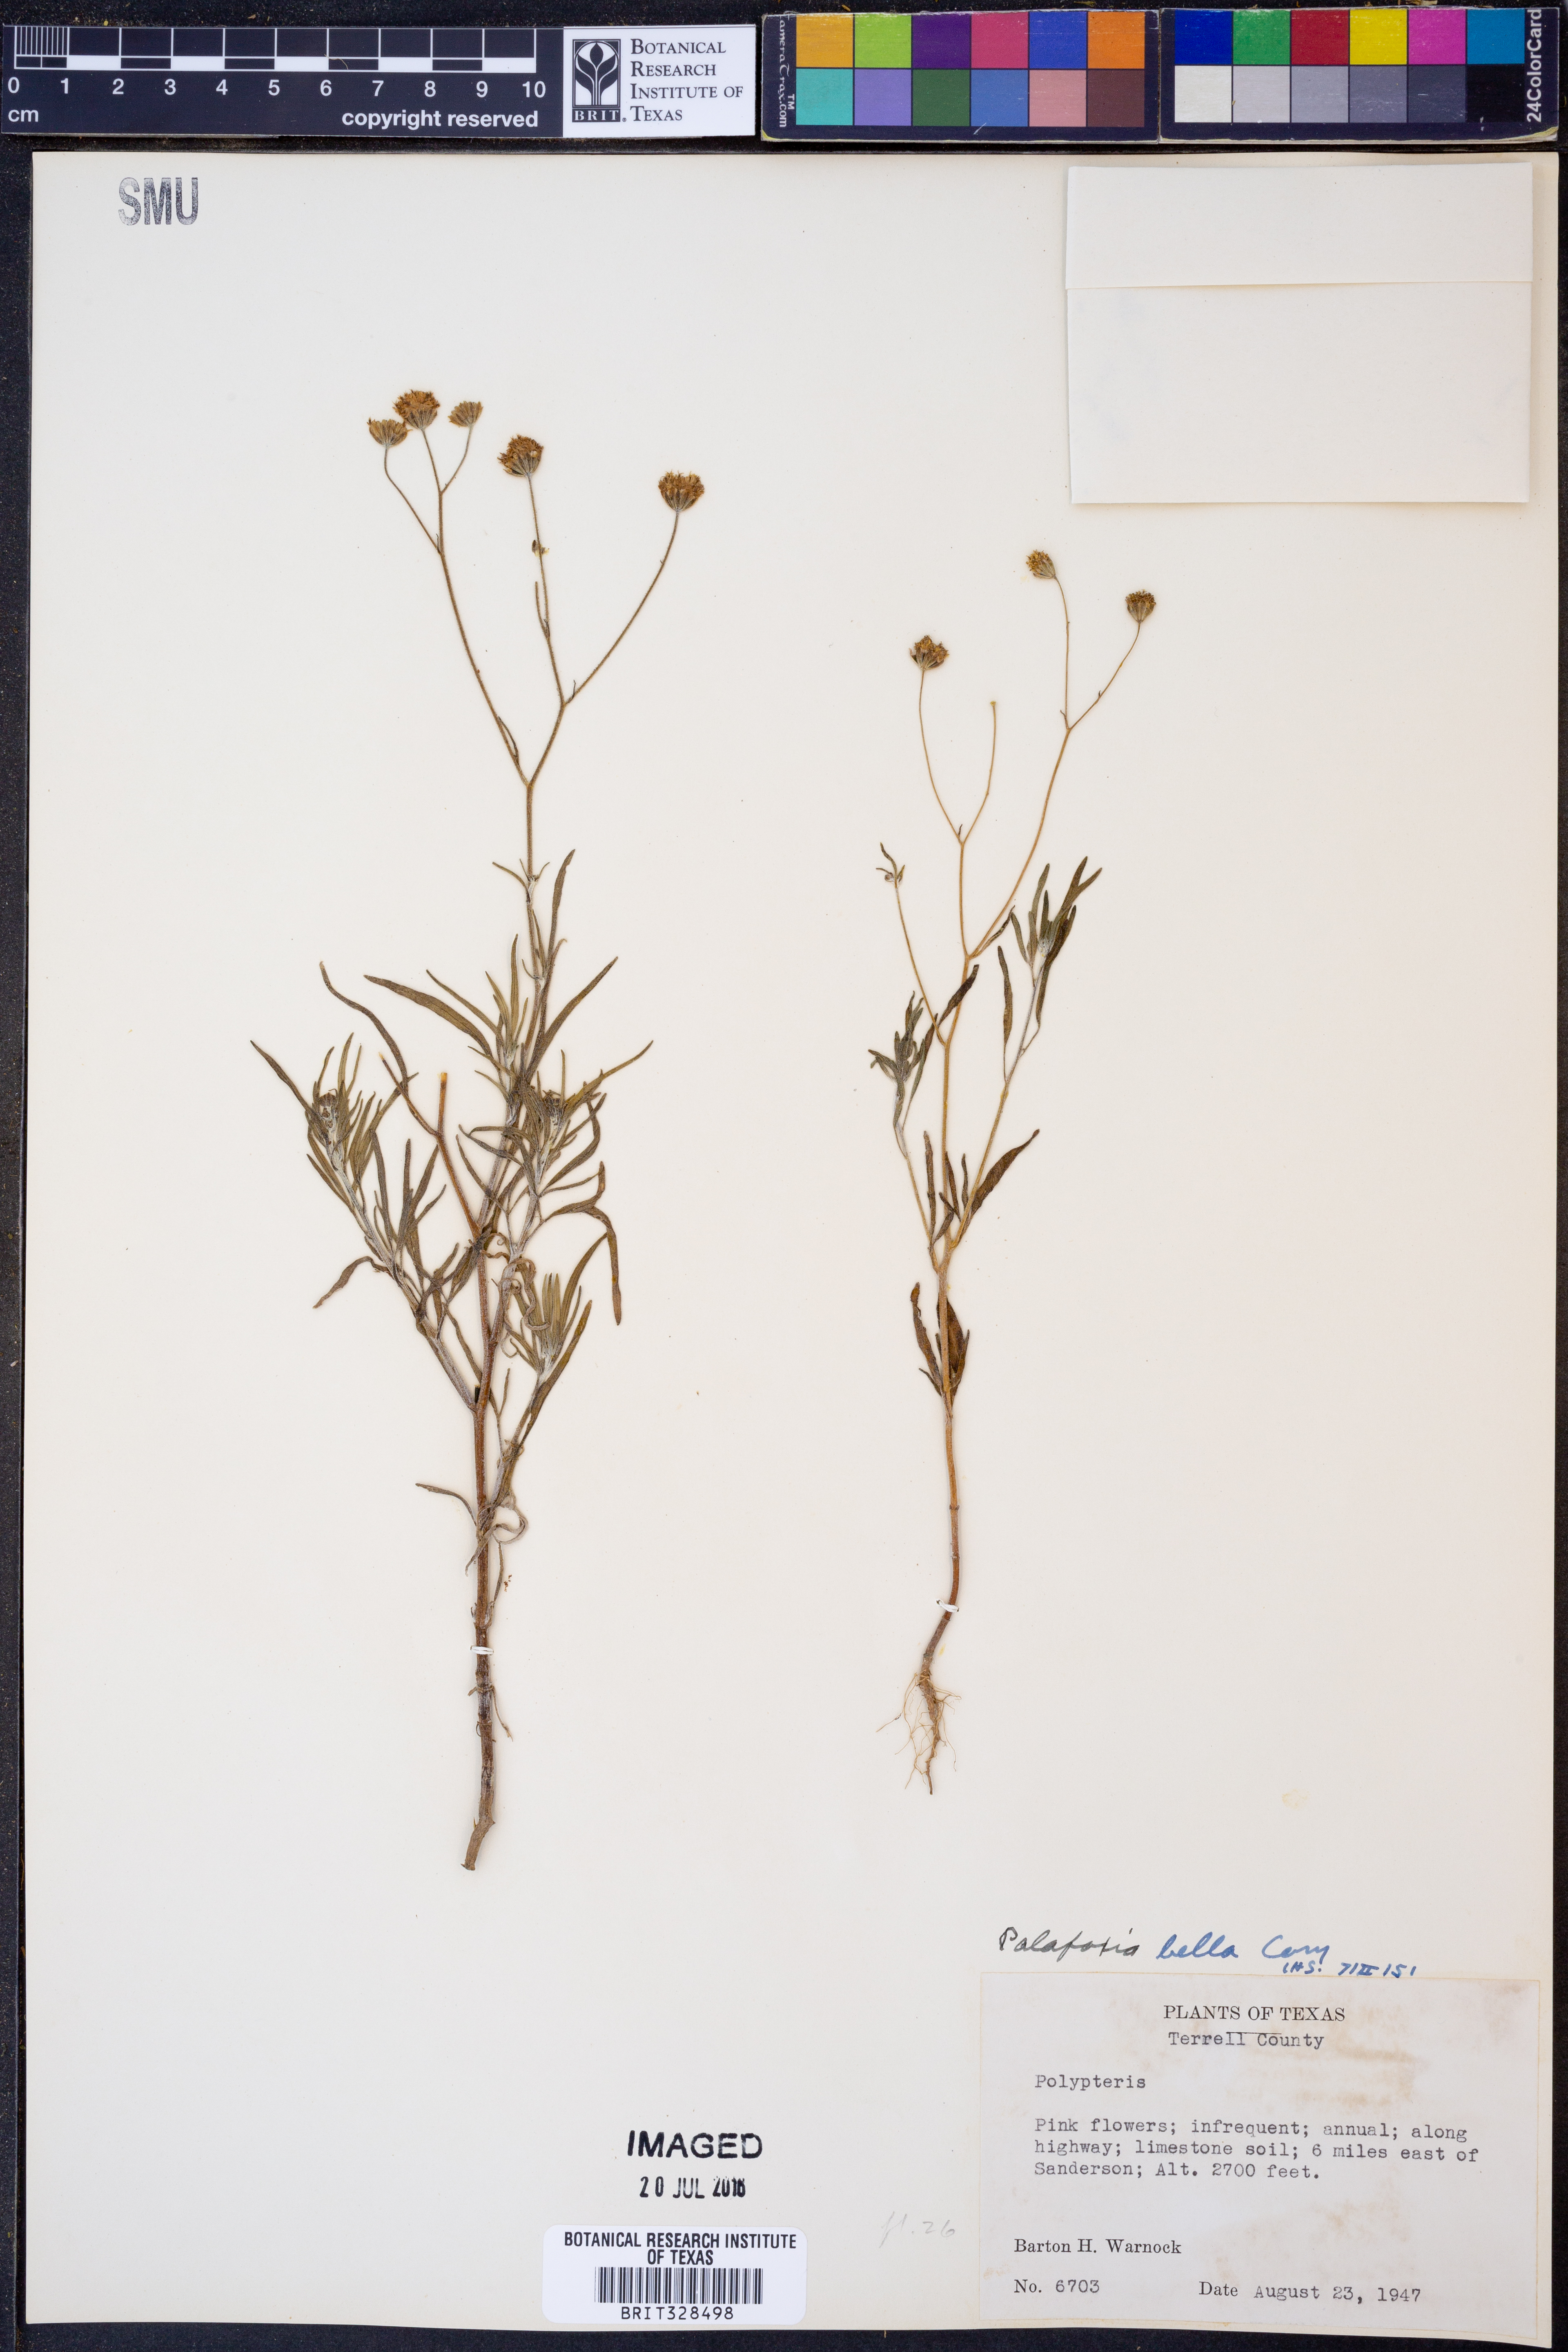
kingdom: Plantae
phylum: Tracheophyta
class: Magnoliopsida
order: Asterales
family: Asteraceae
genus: Palafoxia
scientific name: Palafoxia callosa
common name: Small palafox
